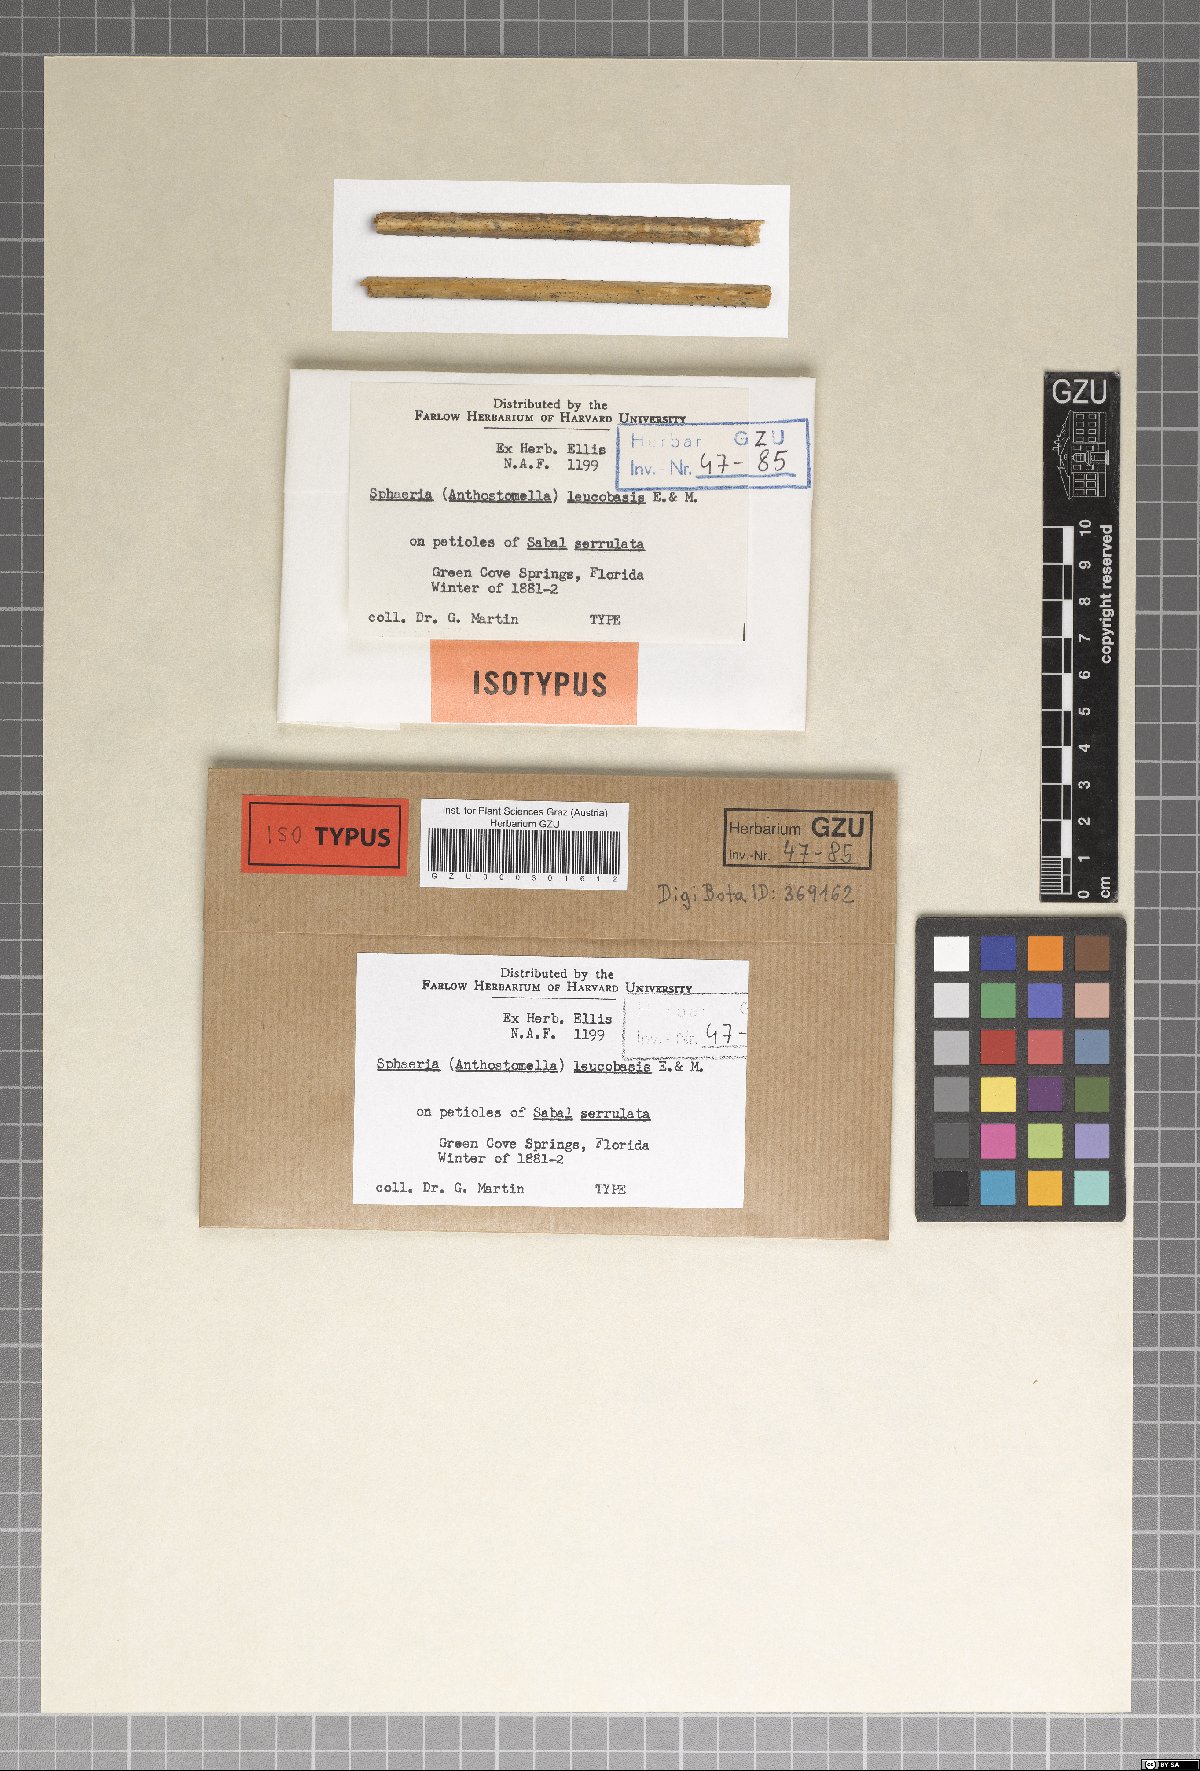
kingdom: Fungi
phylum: Ascomycota
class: Sordariomycetes
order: Xylariales
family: Xylariaceae
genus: Sphaeria
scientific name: Sphaeria
